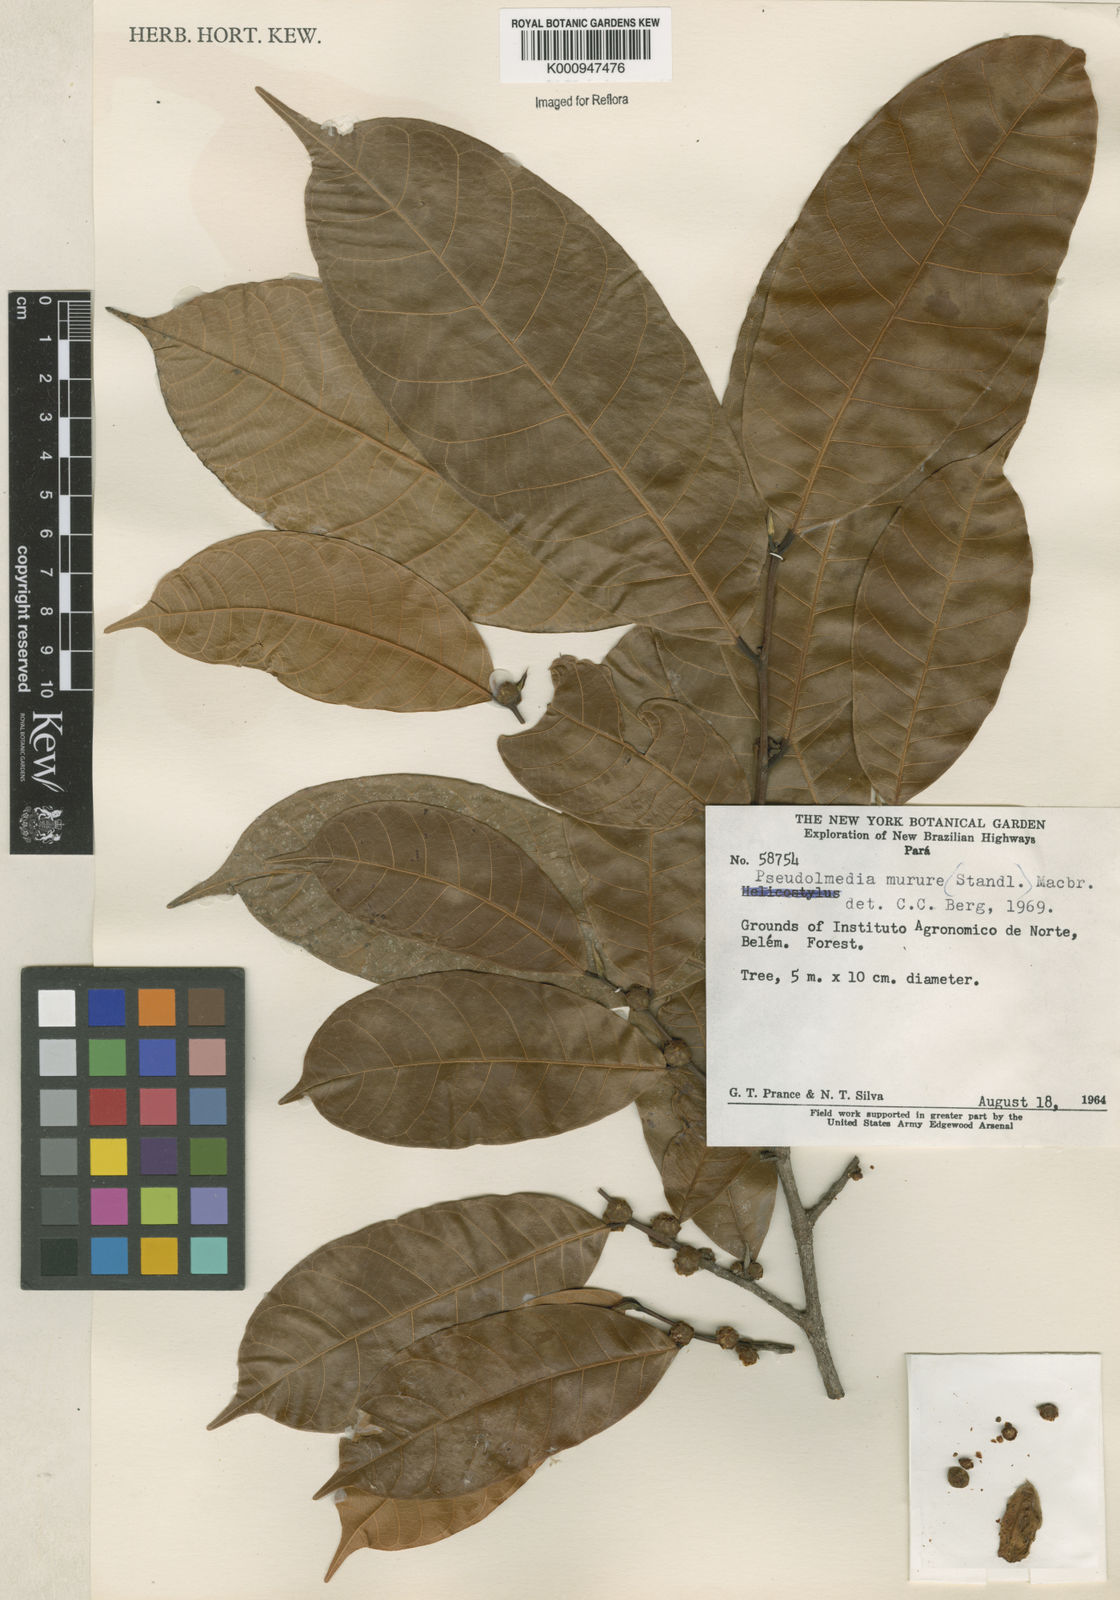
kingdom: Plantae
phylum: Tracheophyta
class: Magnoliopsida
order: Rosales
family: Moraceae
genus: Pseudolmedia
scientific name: Pseudolmedia macrophylla
